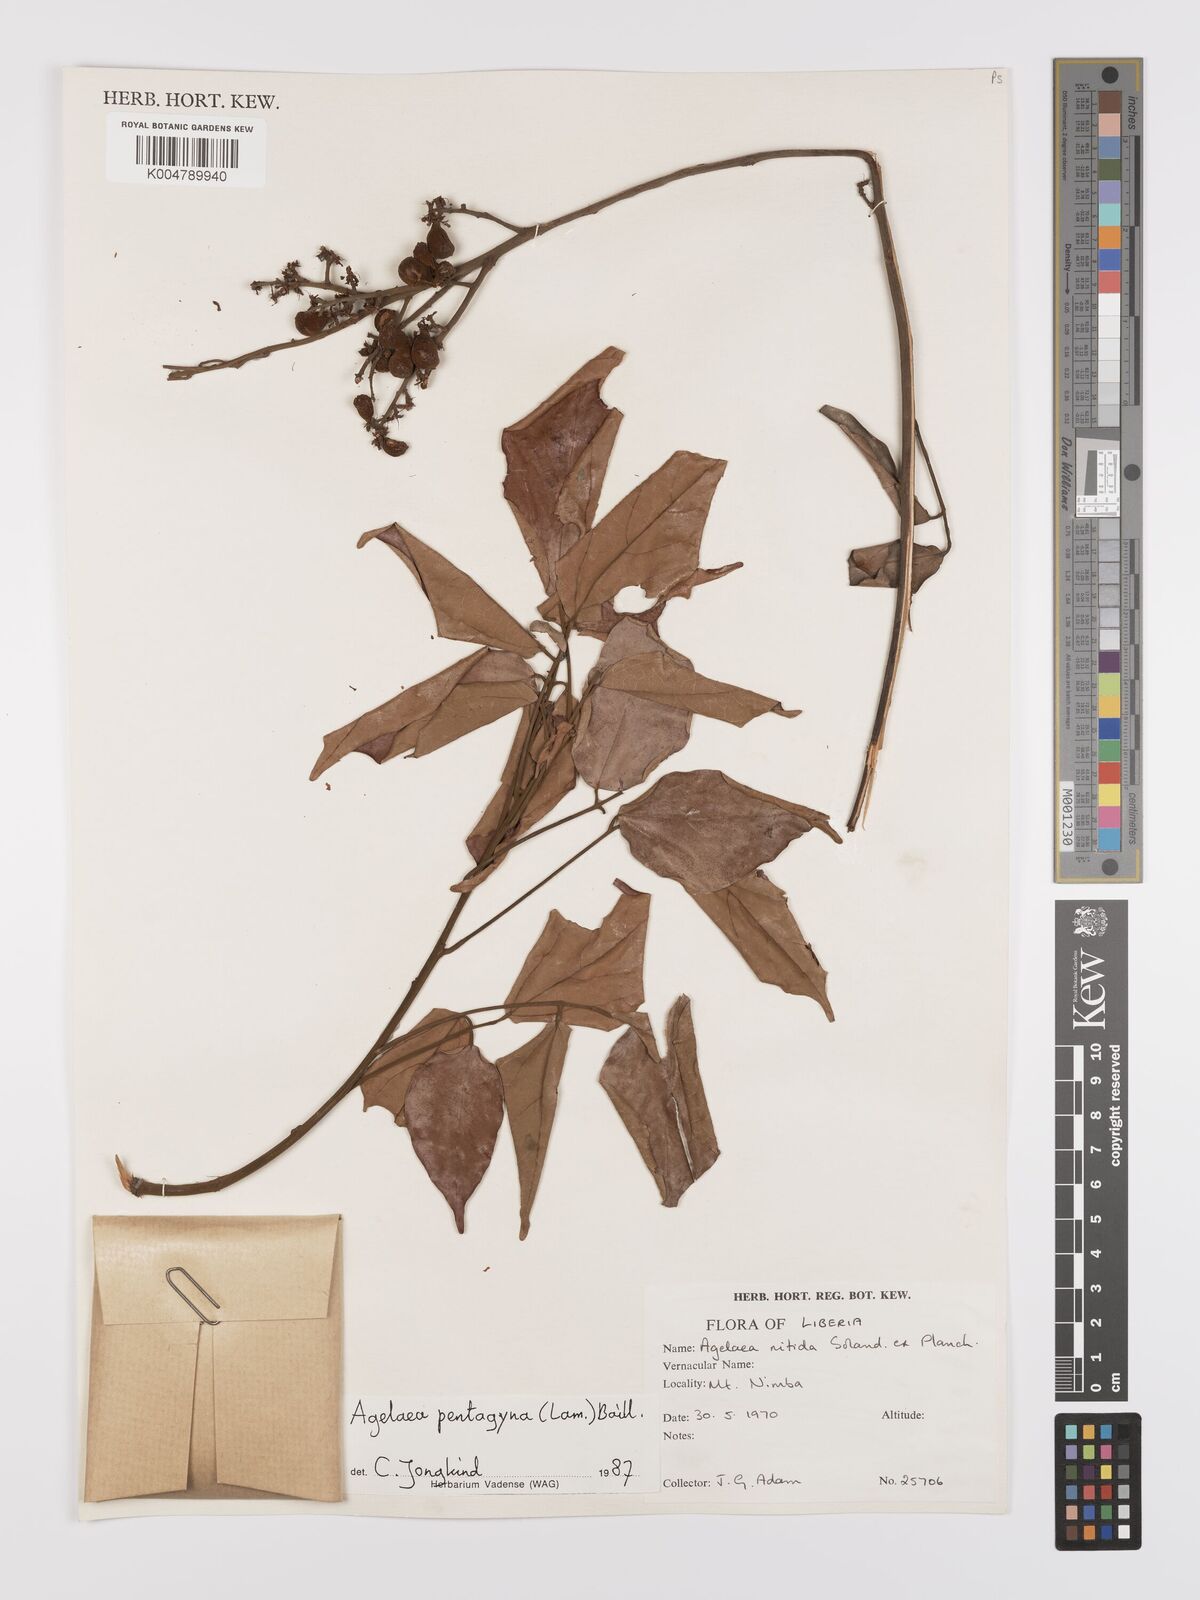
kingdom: Plantae
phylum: Tracheophyta
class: Magnoliopsida
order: Oxalidales
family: Connaraceae
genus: Agelaea
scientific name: Agelaea pentagyna
